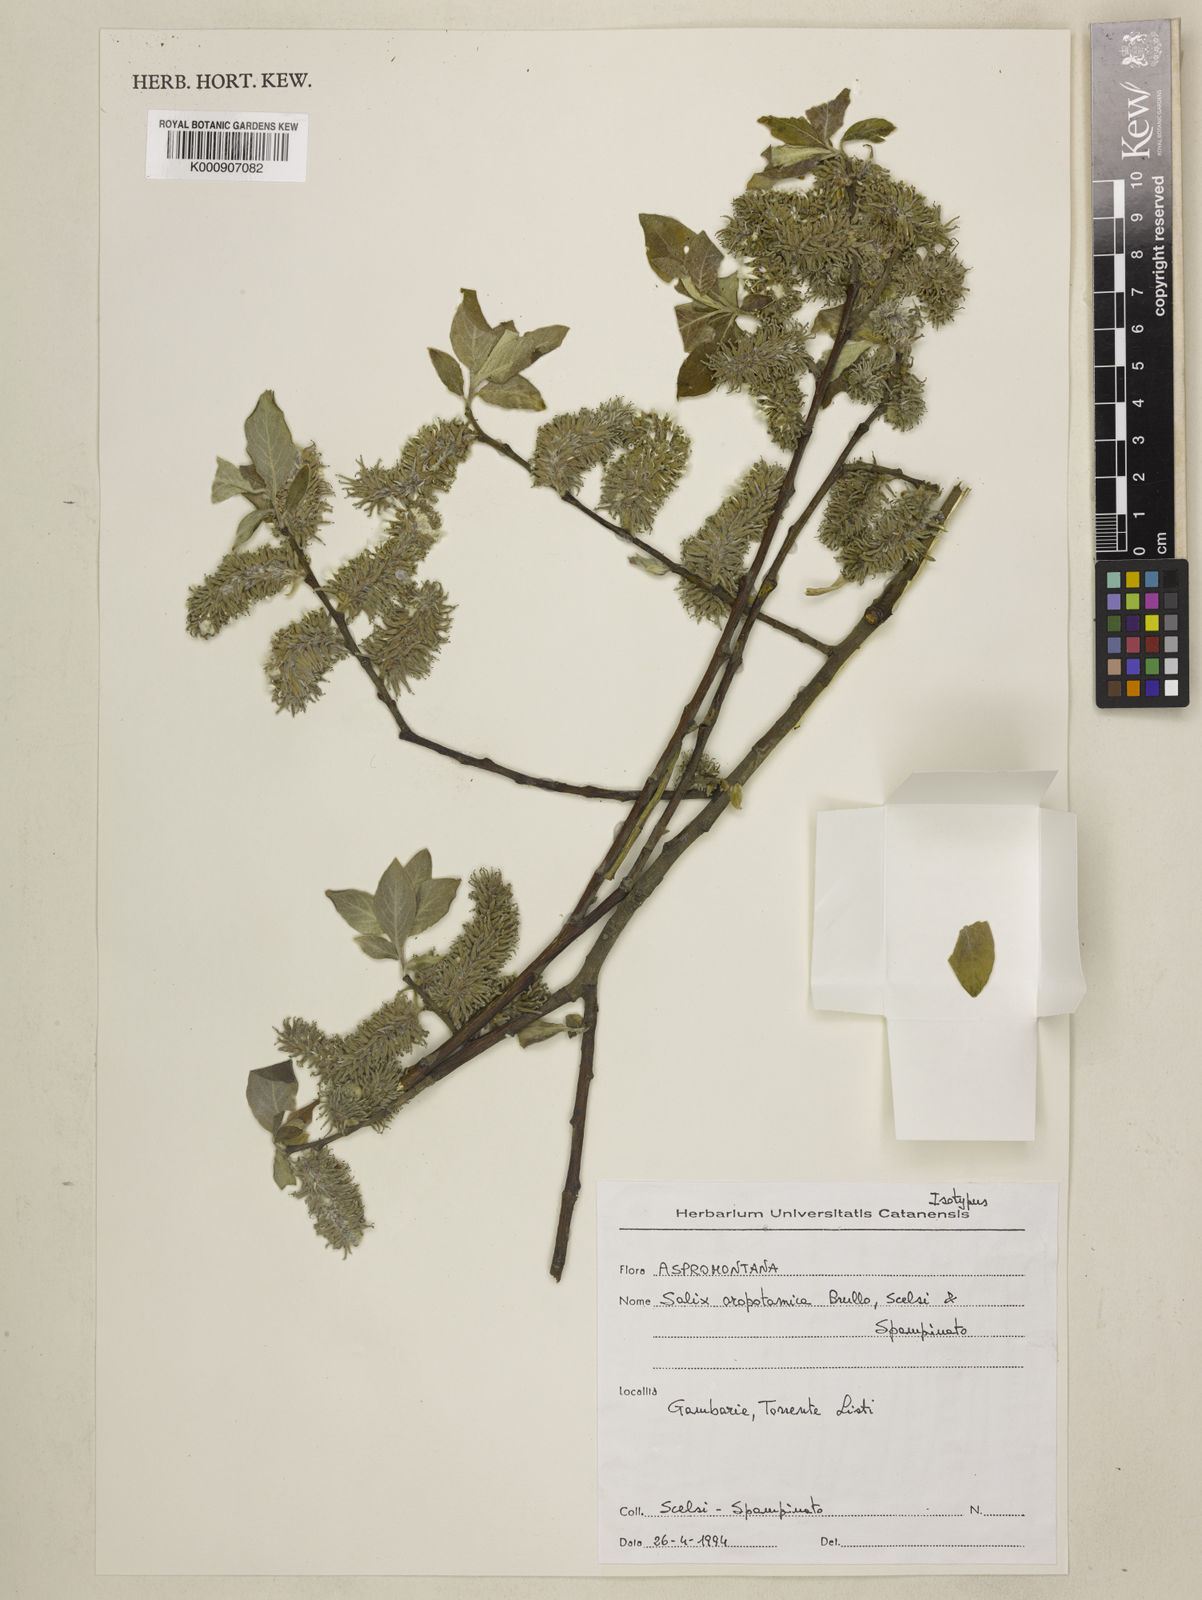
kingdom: Plantae
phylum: Tracheophyta
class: Magnoliopsida
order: Malpighiales
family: Salicaceae
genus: Salix
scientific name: Salix
